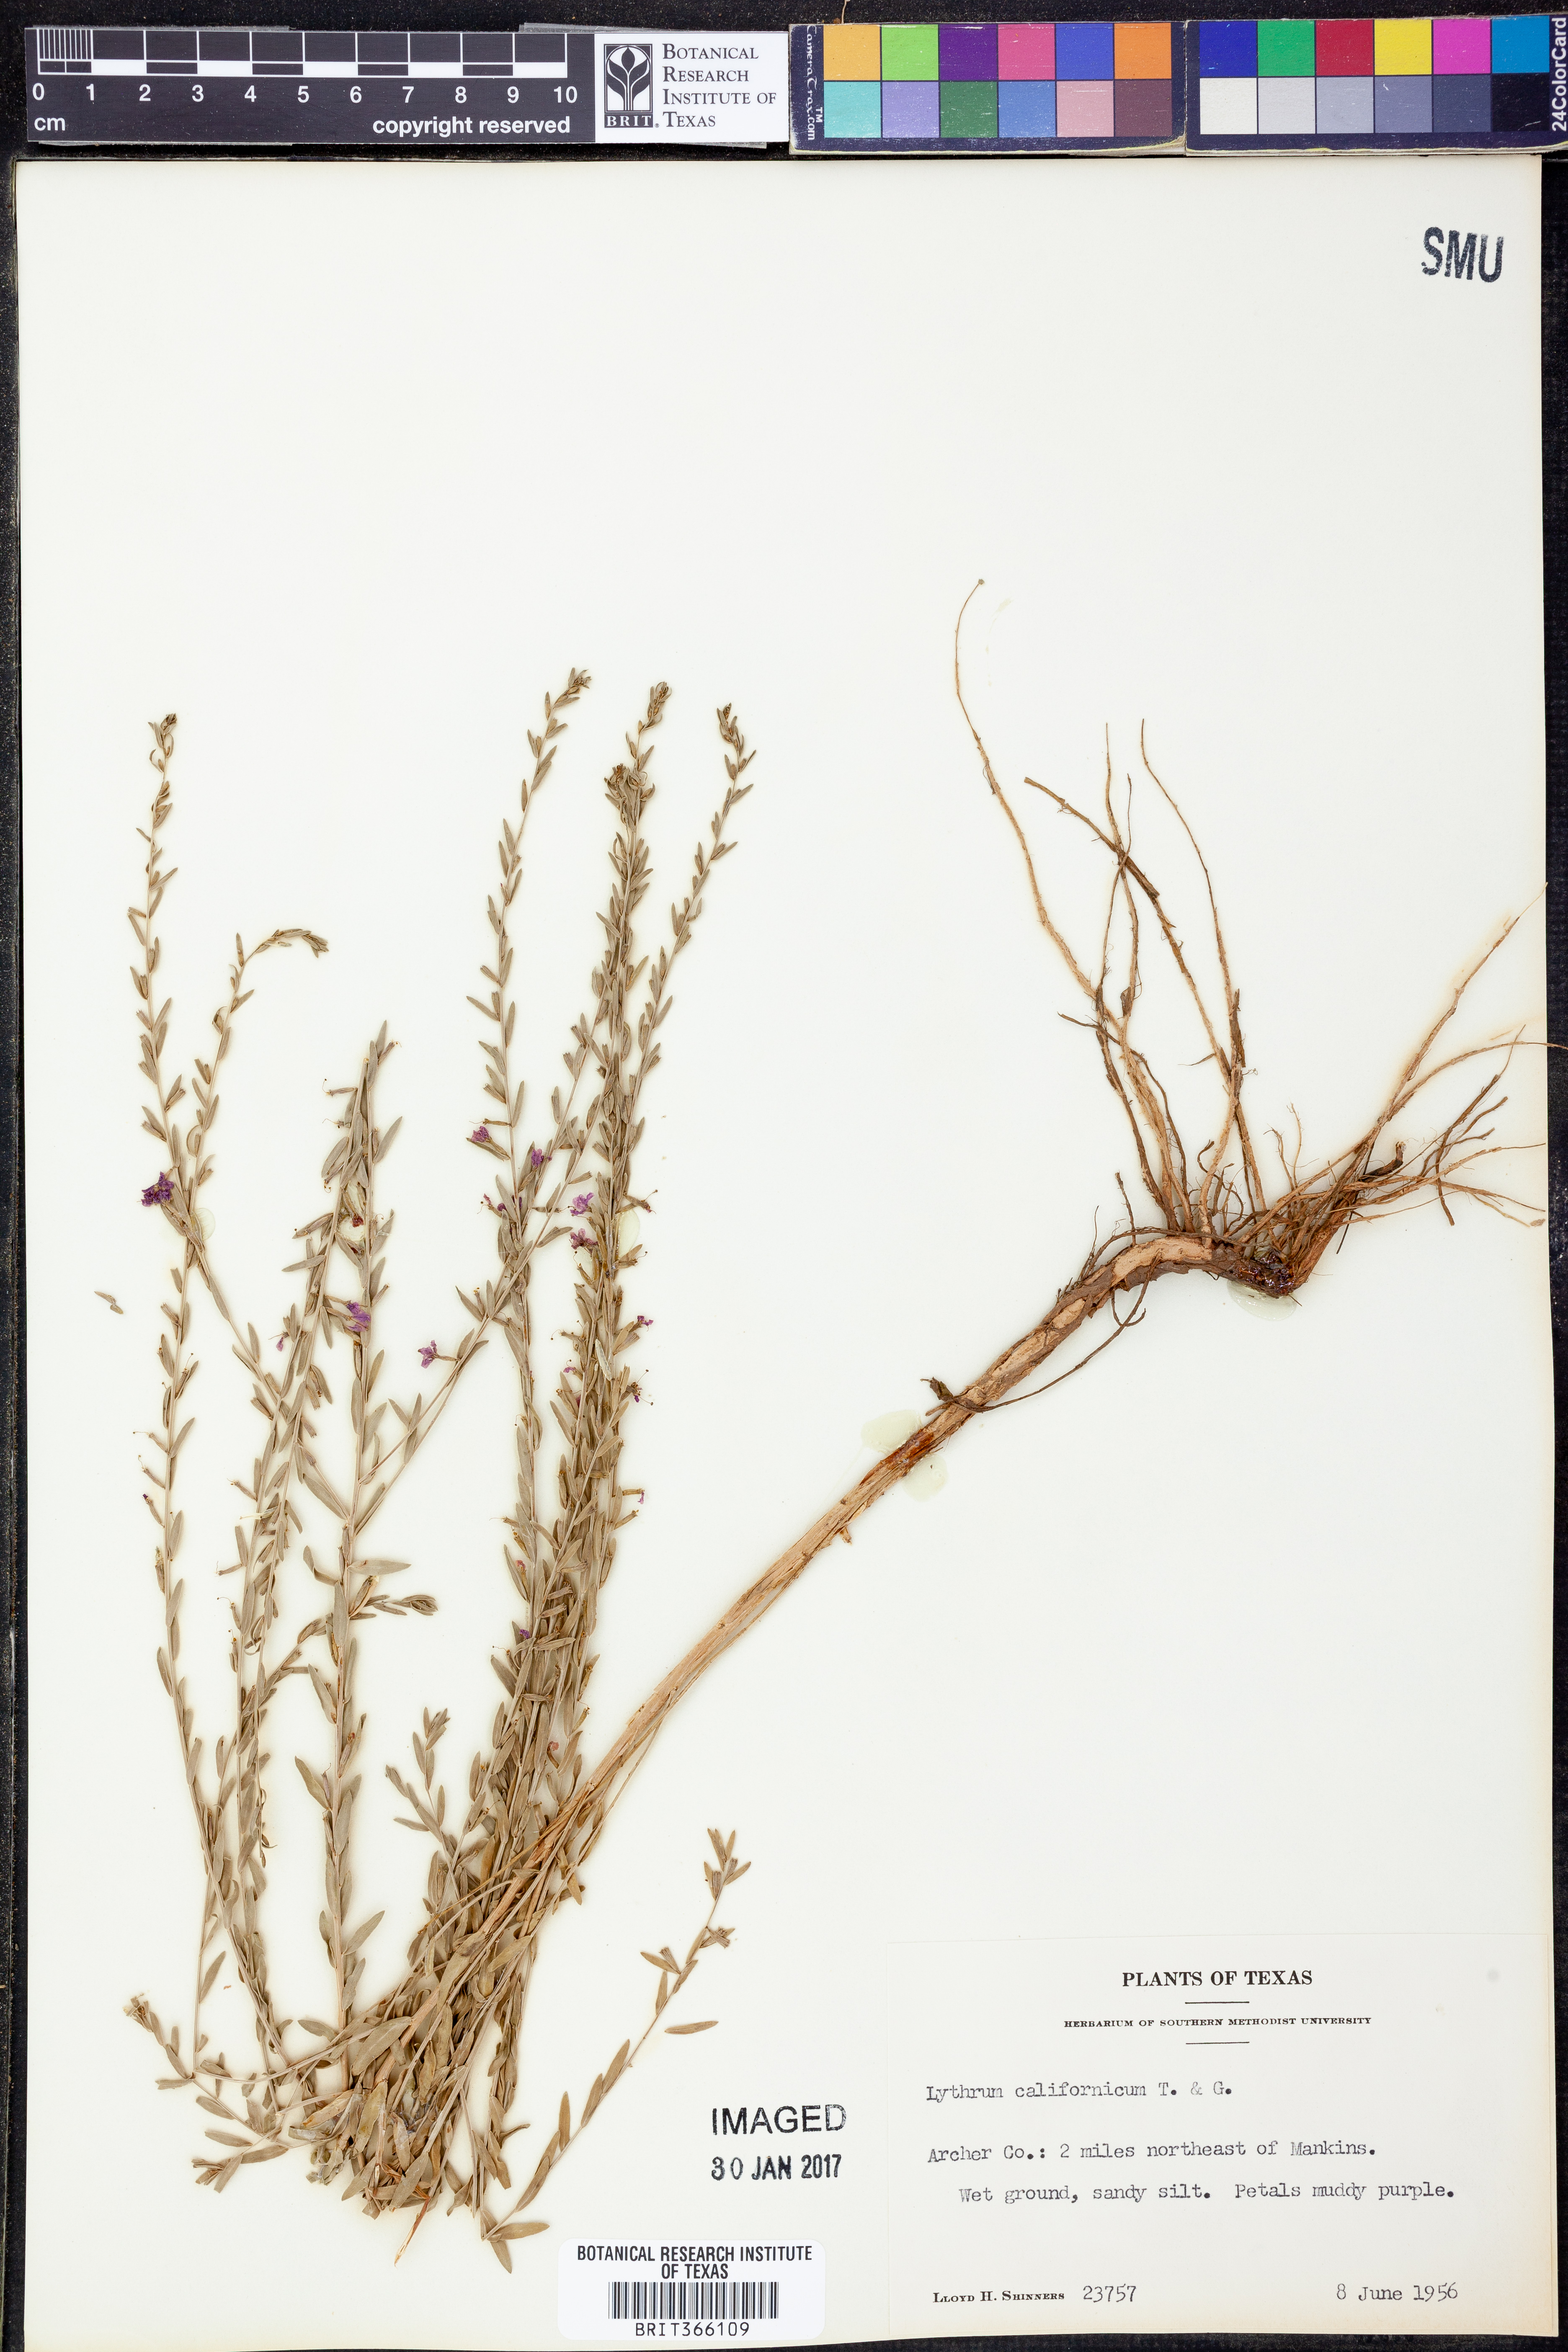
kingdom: Plantae
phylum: Tracheophyta
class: Magnoliopsida
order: Myrtales
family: Lythraceae
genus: Lythrum
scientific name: Lythrum californicum
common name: California loosestrife
